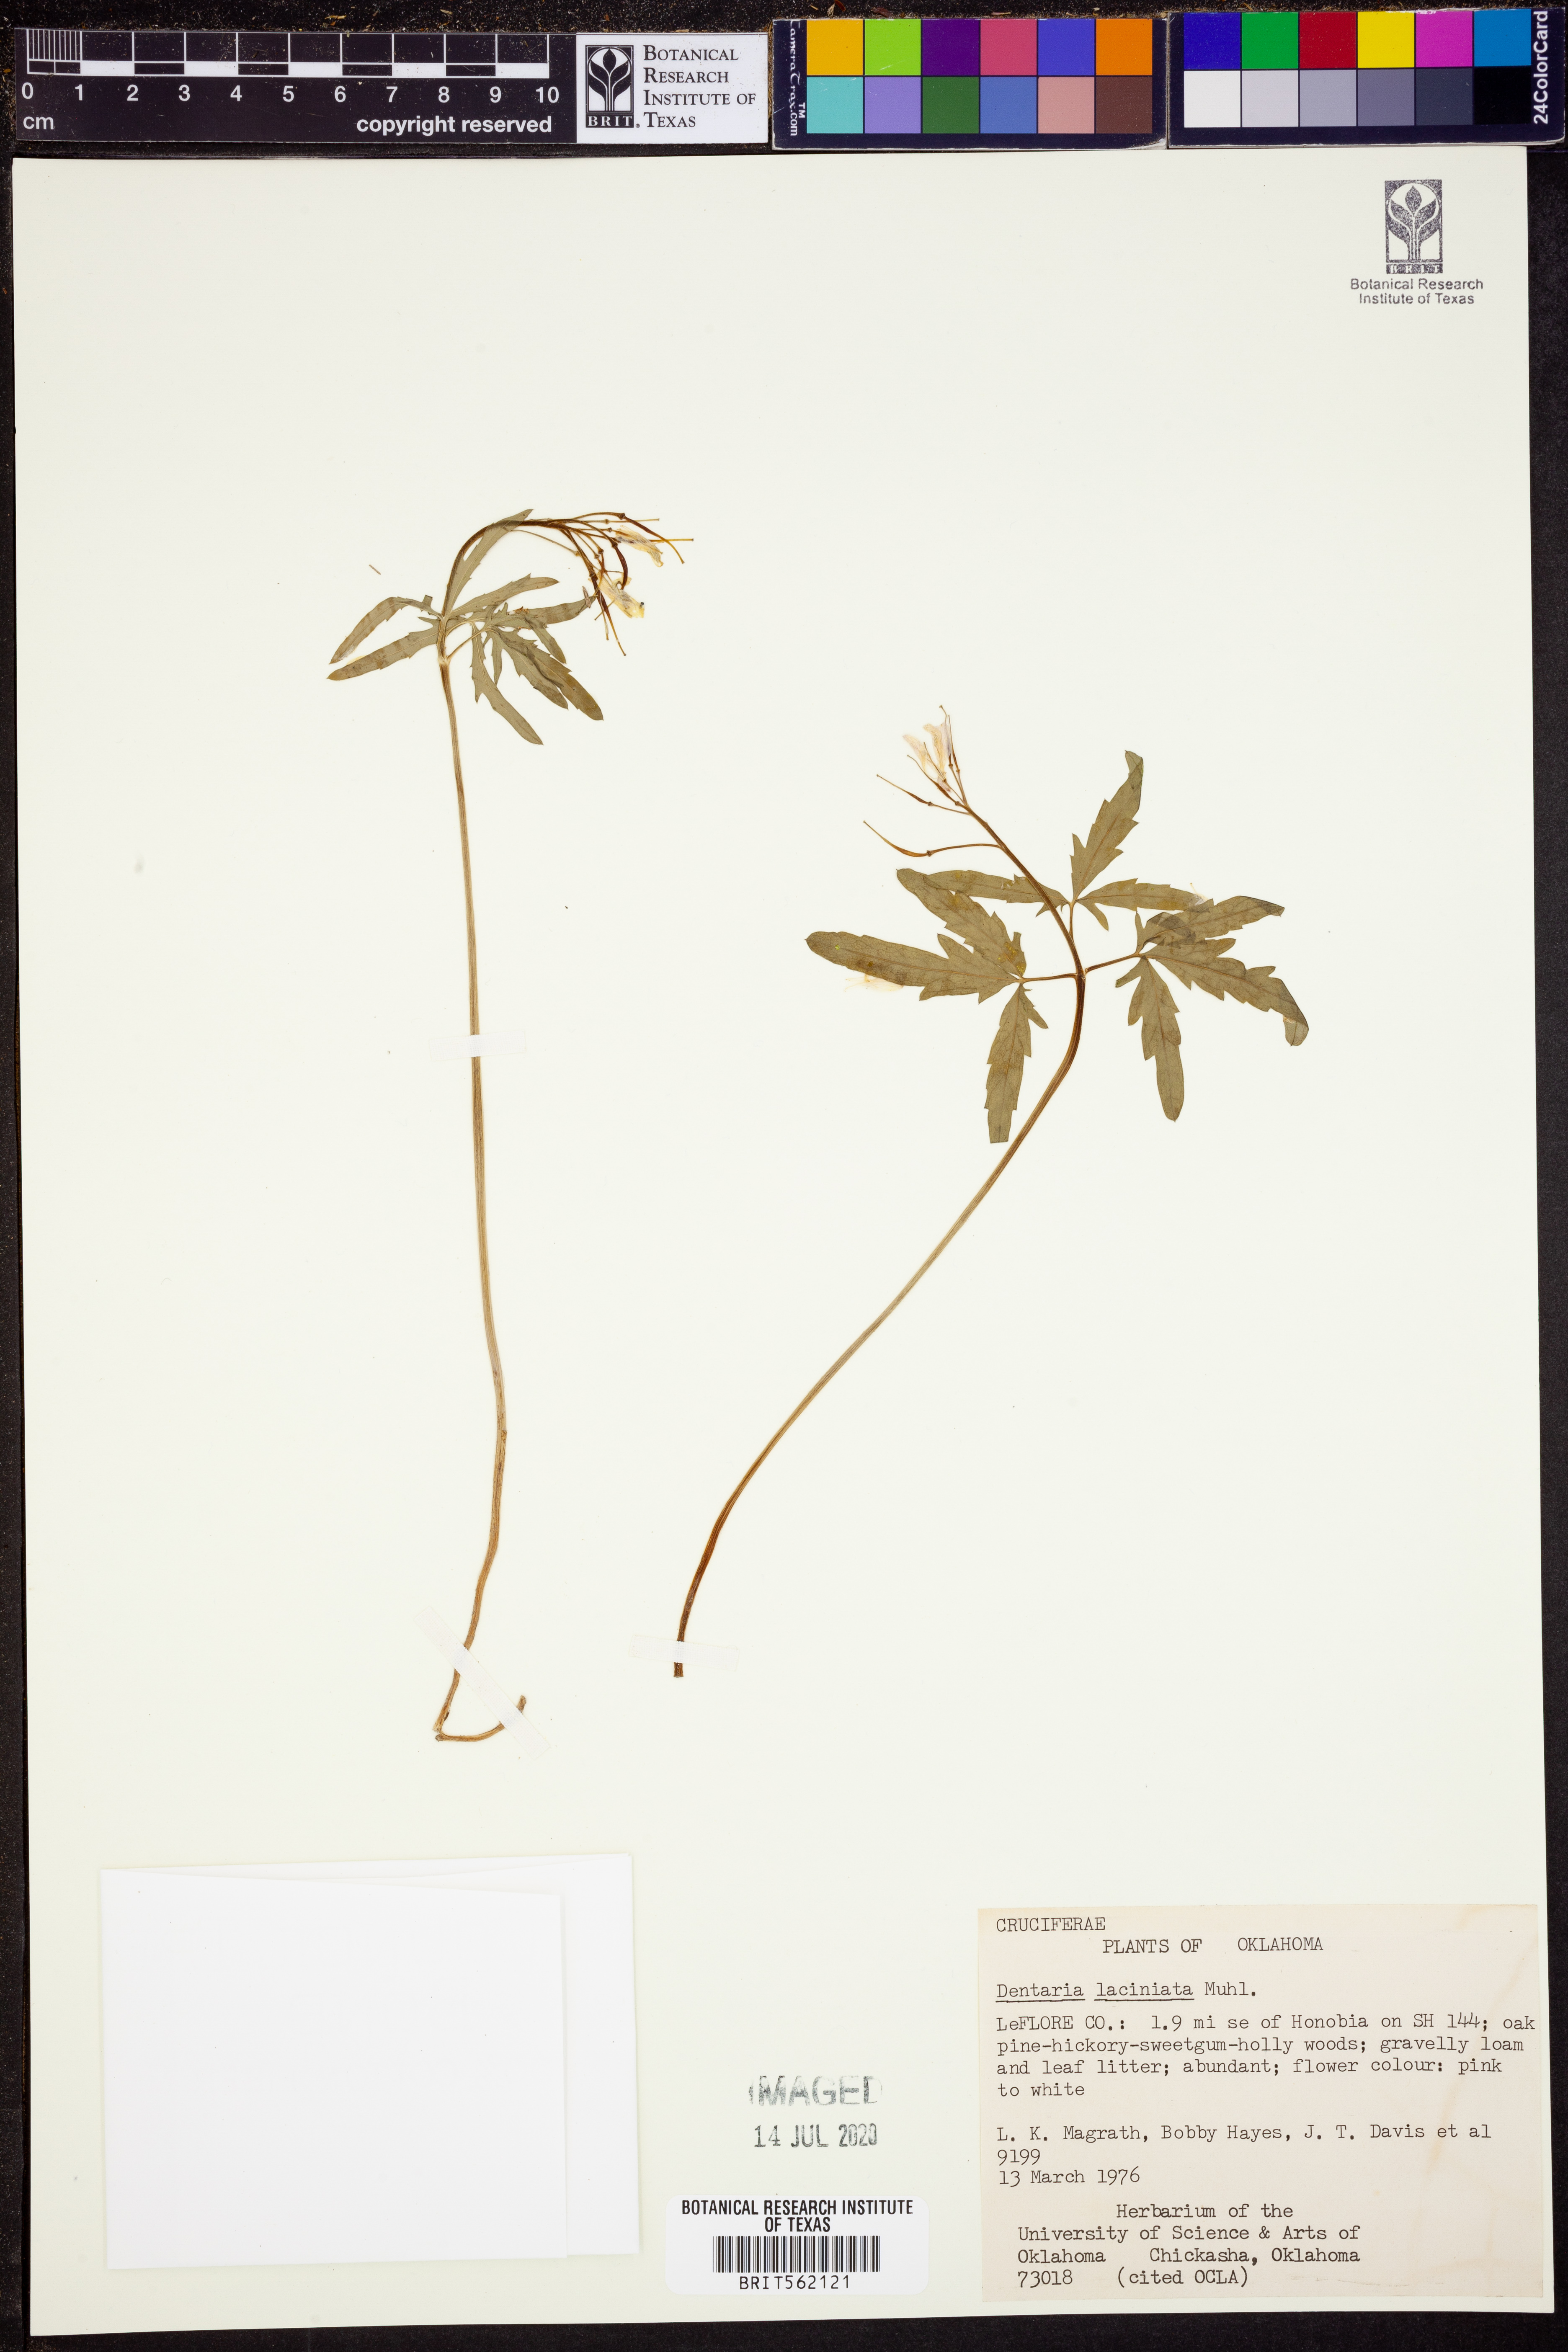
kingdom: Plantae
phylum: Tracheophyta
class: Magnoliopsida
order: Brassicales
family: Brassicaceae
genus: Cardamine
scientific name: Cardamine concatenata
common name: Cut-leaf toothcup
